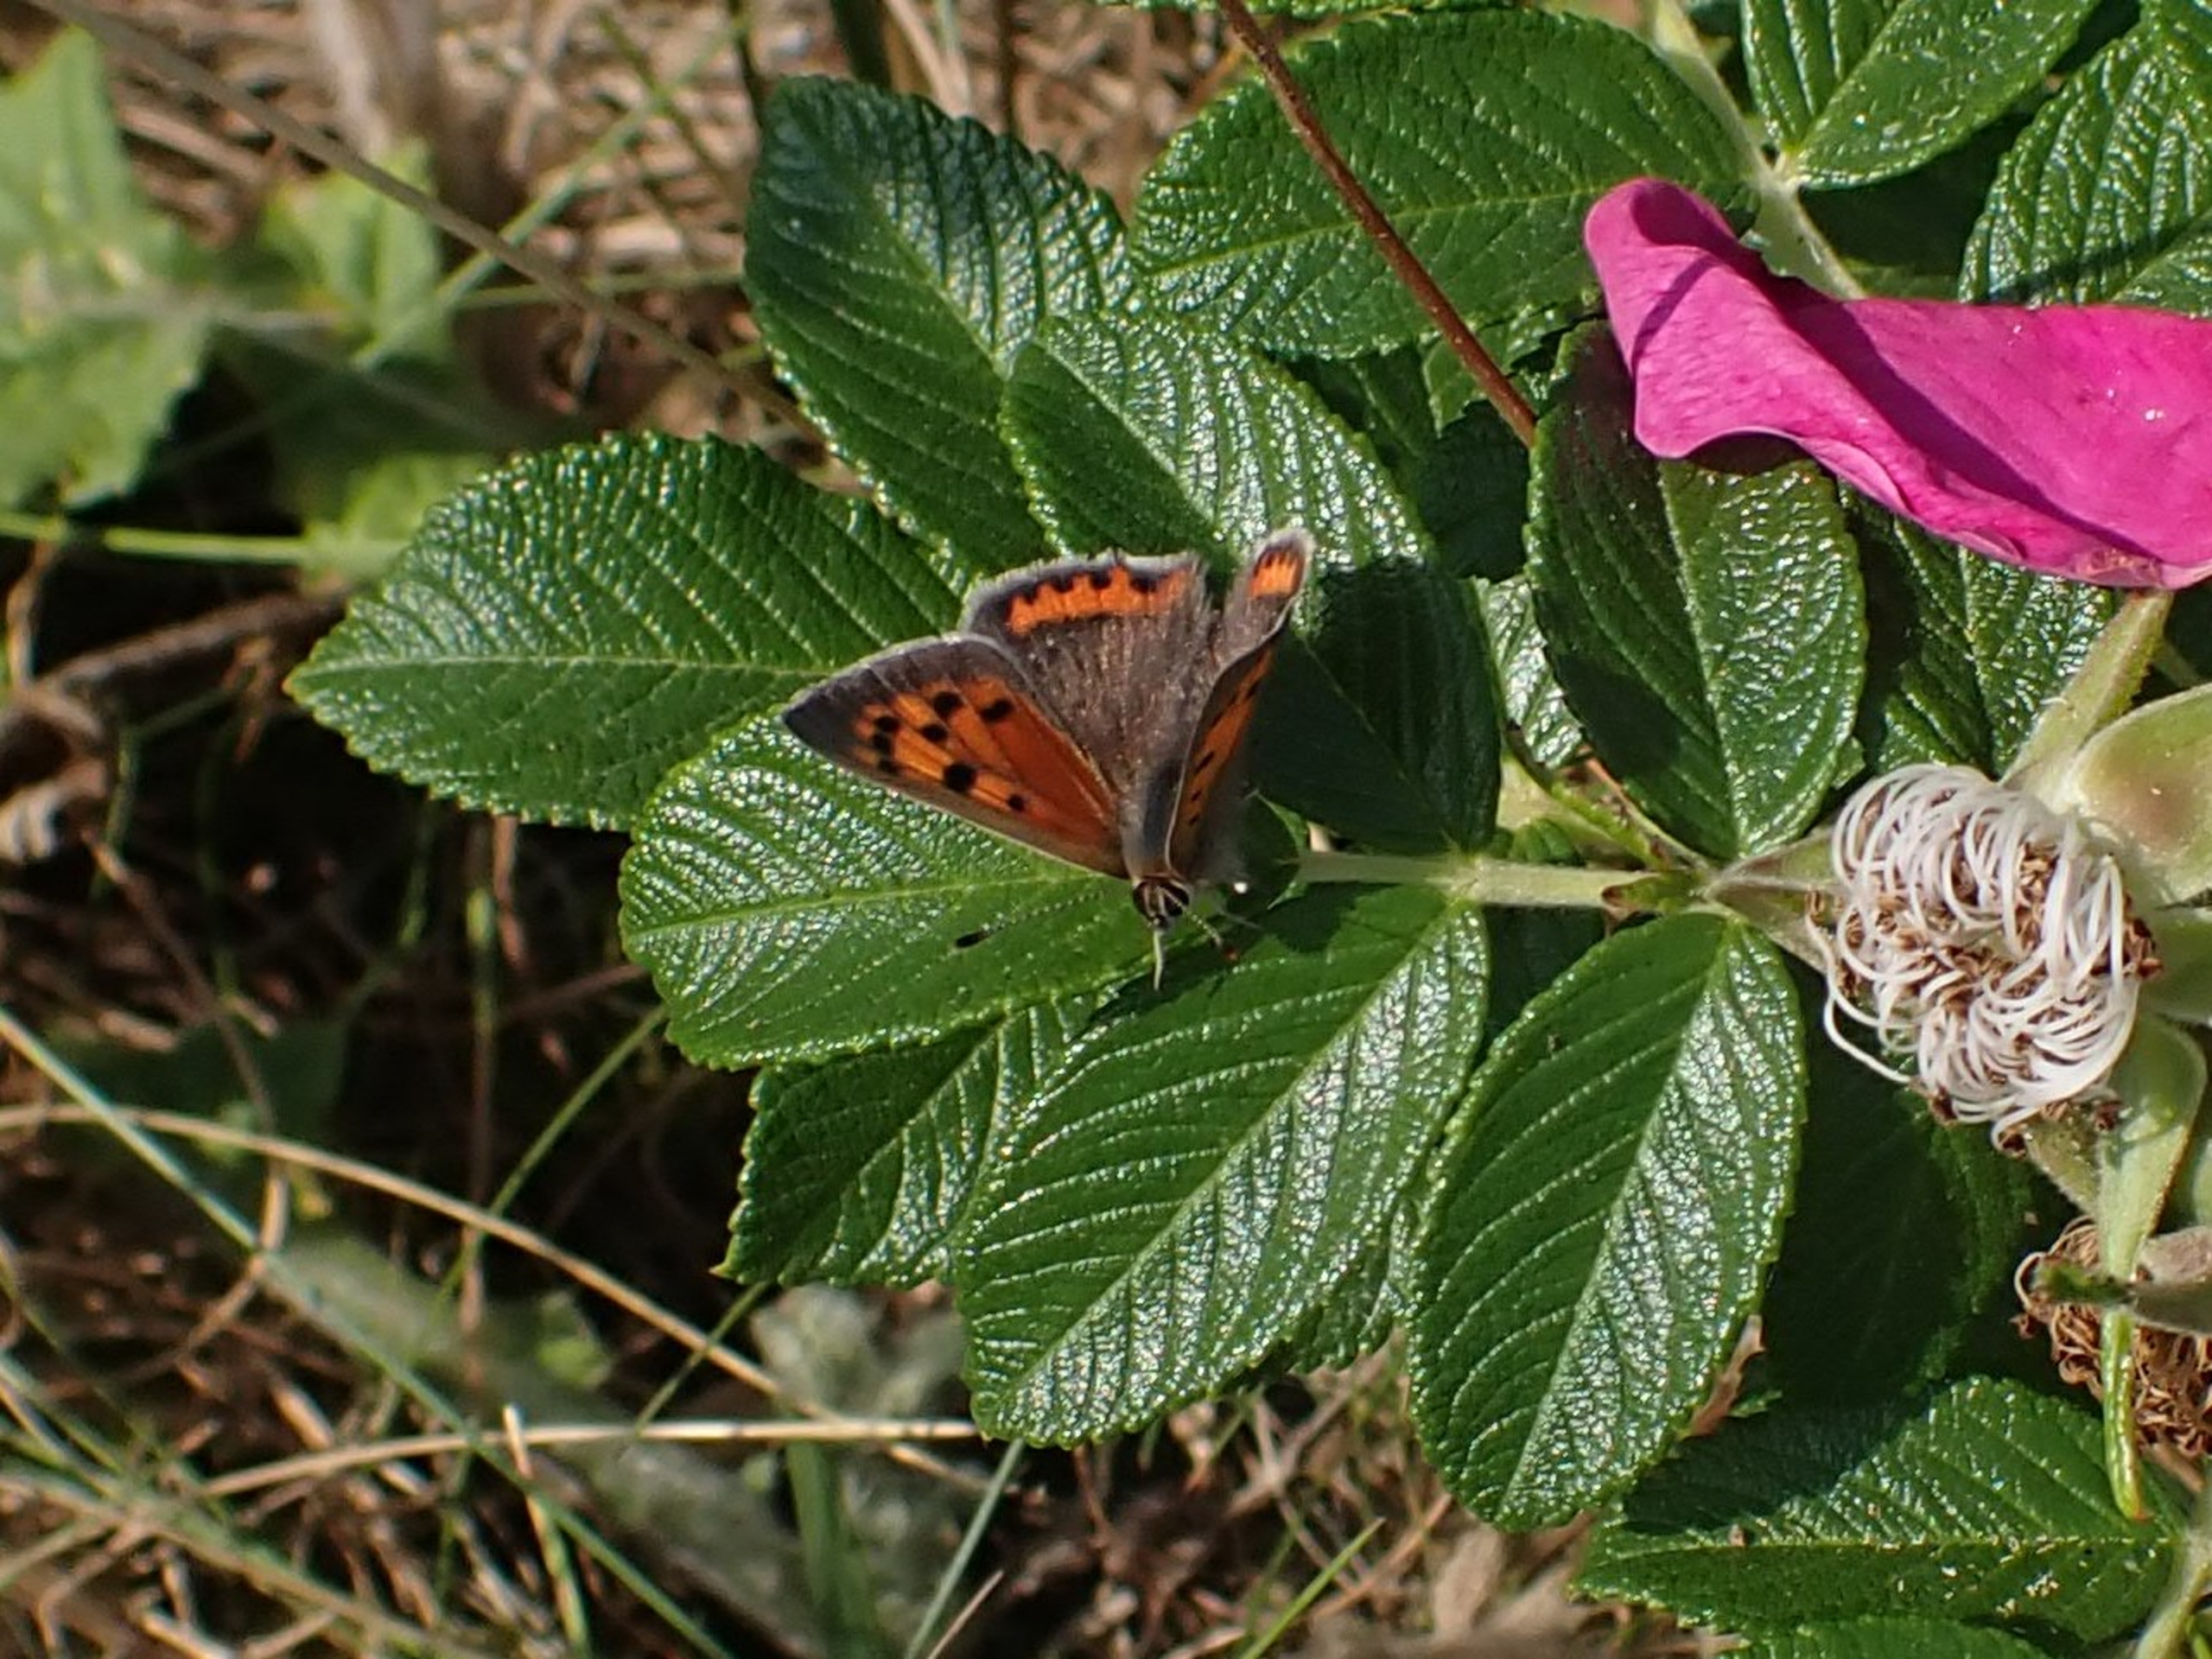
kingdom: Animalia
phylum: Arthropoda
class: Insecta
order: Lepidoptera
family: Lycaenidae
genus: Lycaena
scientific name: Lycaena phlaeas
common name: Lille ildfugl
